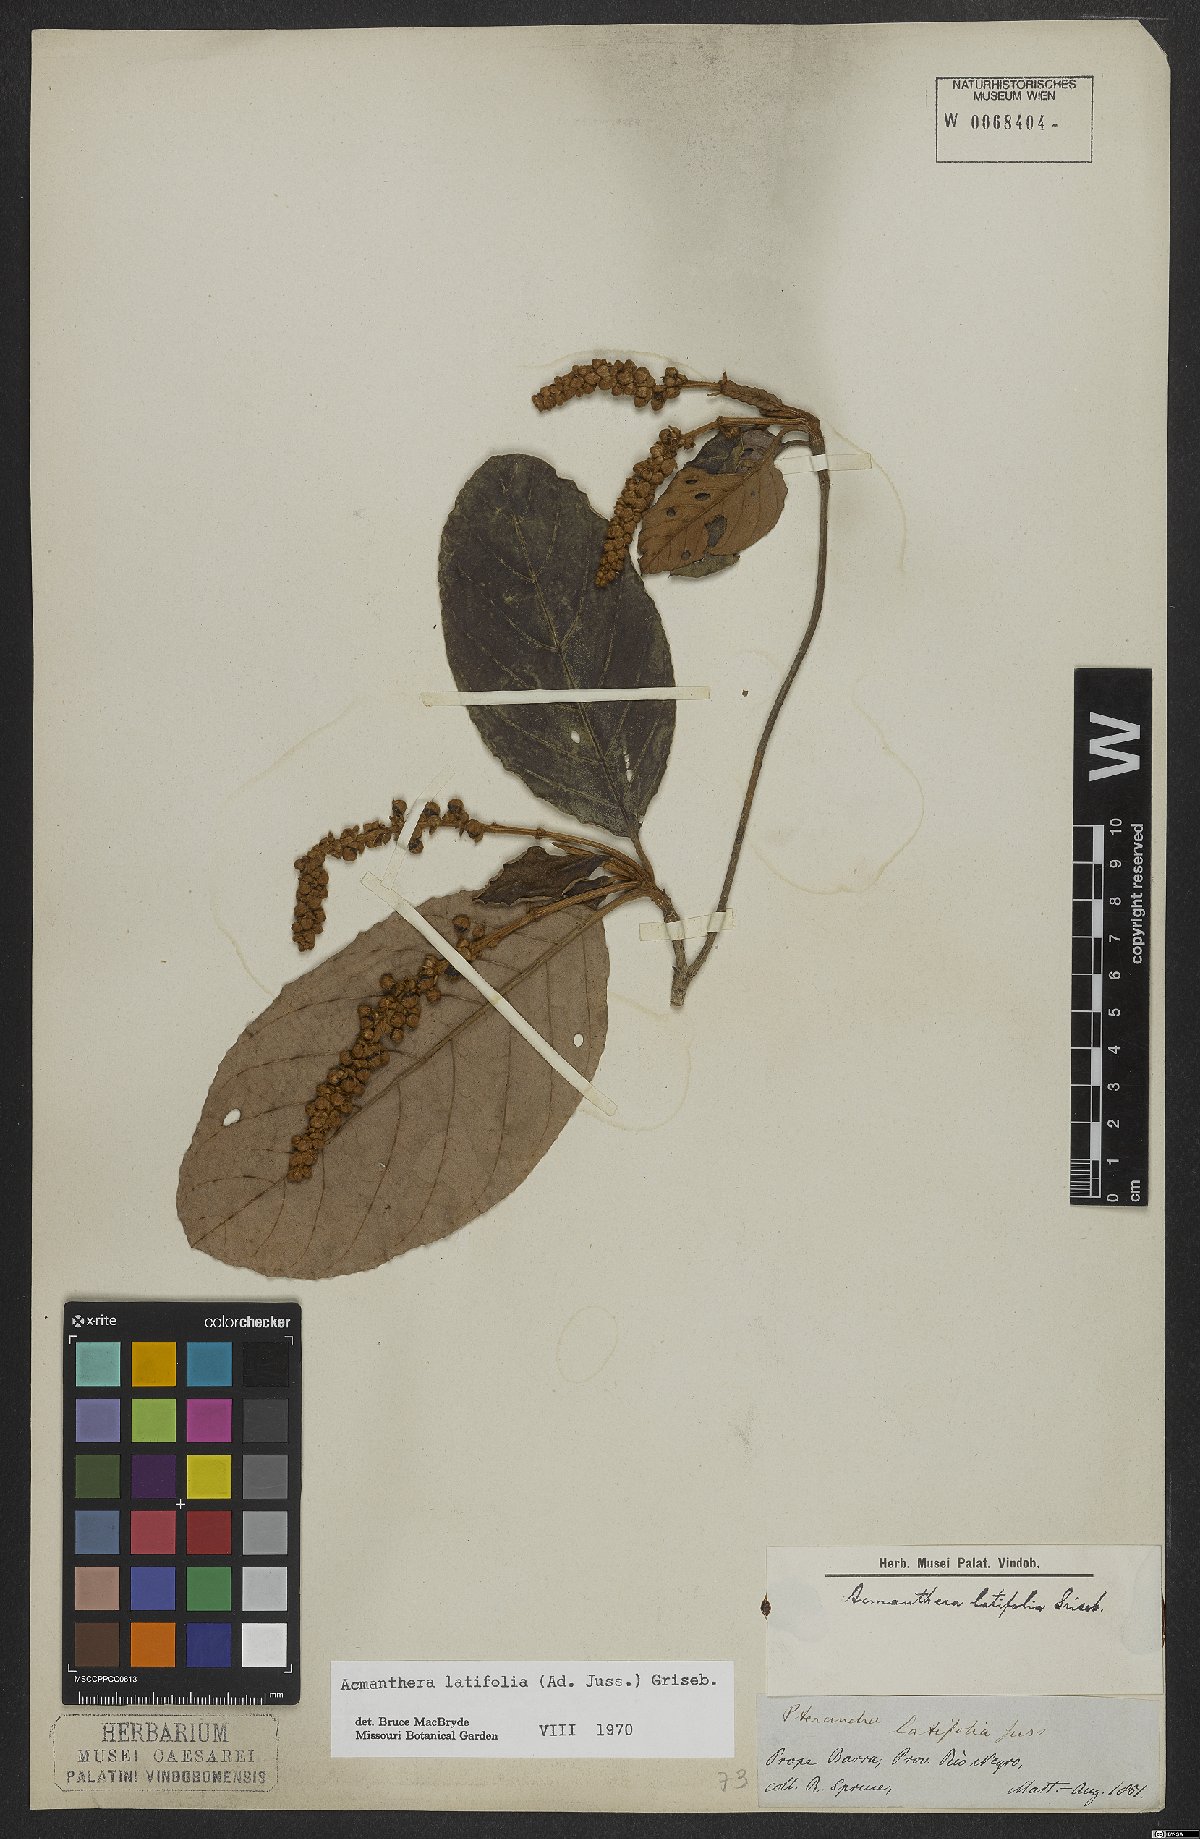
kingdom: Plantae
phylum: Tracheophyta
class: Magnoliopsida
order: Malpighiales
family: Malpighiaceae
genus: Acmanthera
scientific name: Acmanthera latifolia
